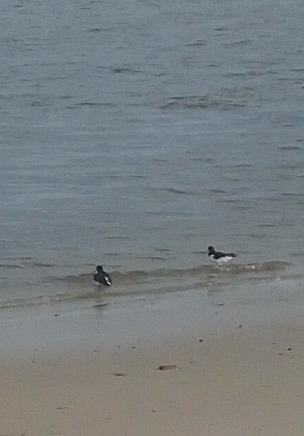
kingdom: Animalia
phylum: Chordata
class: Aves
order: Charadriiformes
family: Haematopodidae
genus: Haematopus
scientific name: Haematopus ostralegus
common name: Strandskade
